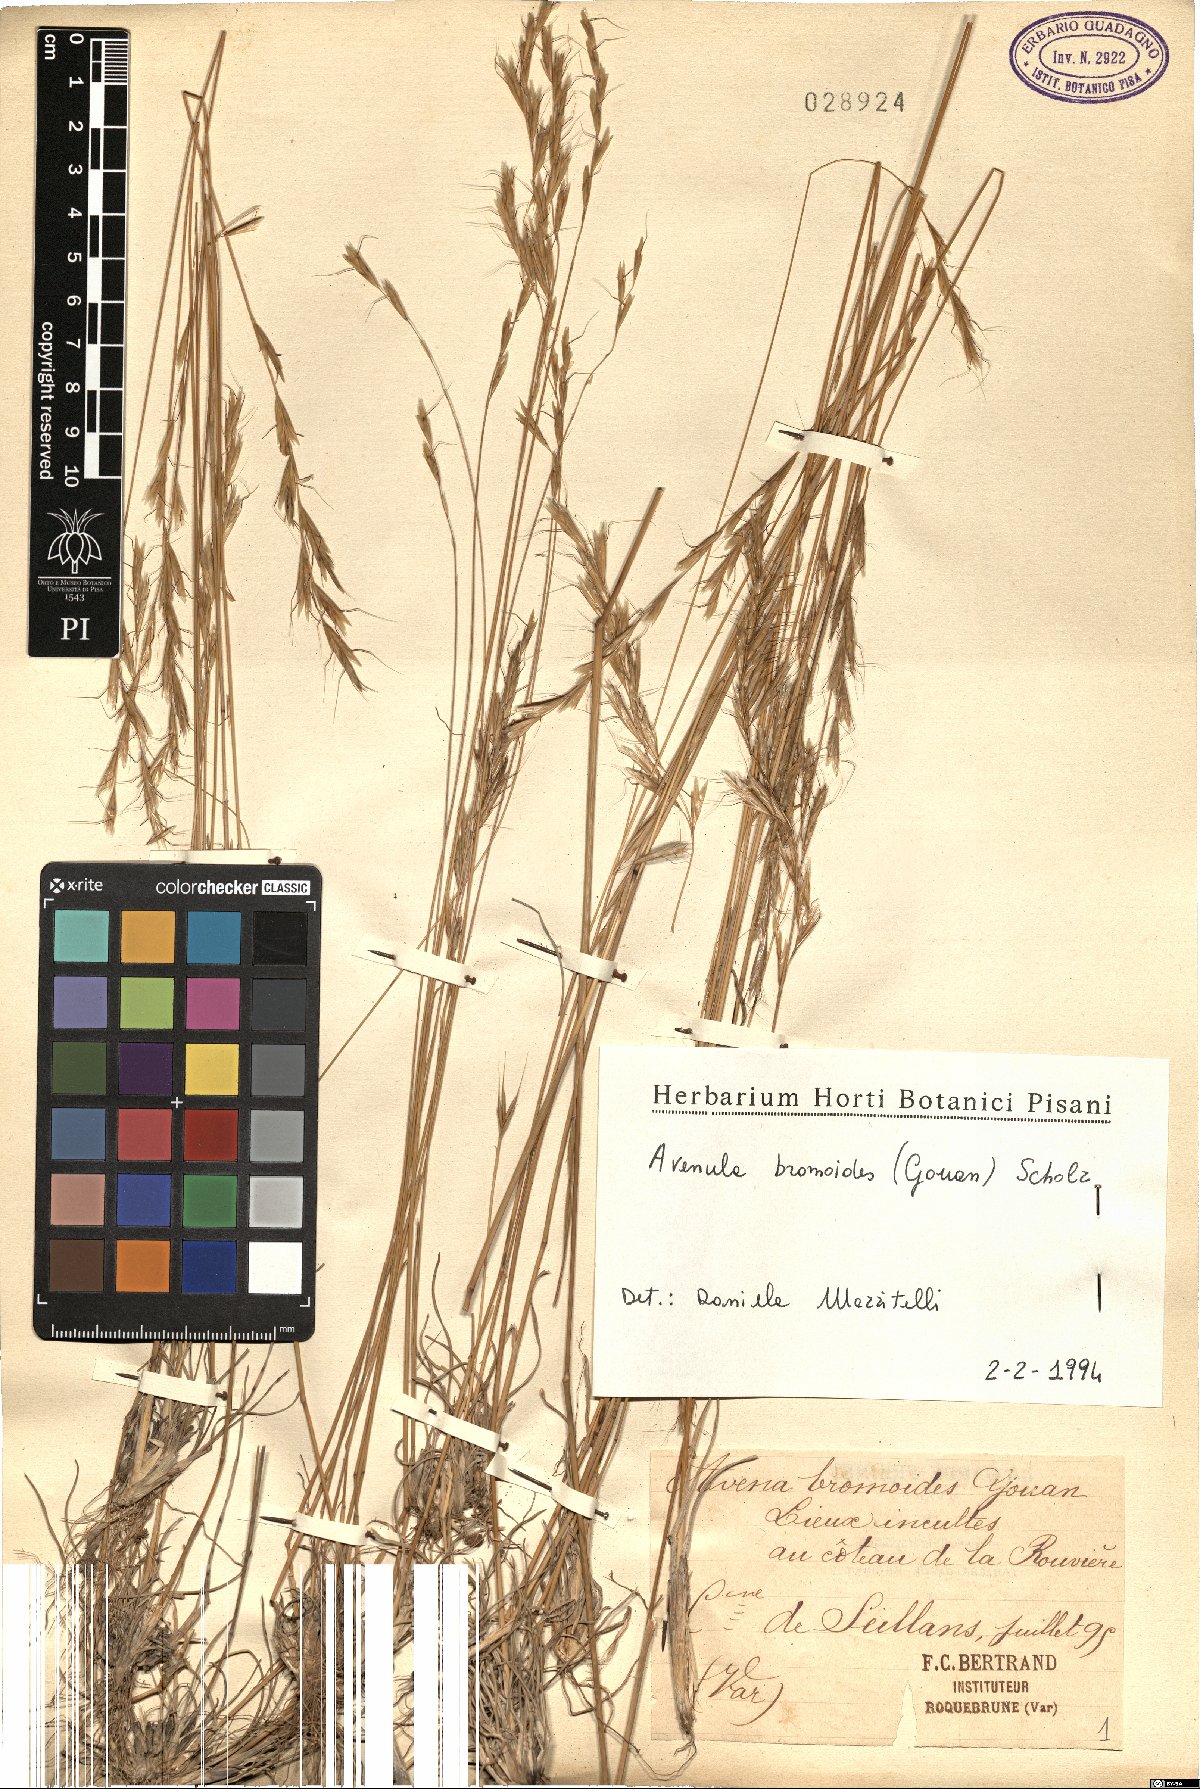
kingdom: Plantae
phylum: Tracheophyta
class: Liliopsida
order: Poales
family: Poaceae
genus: Helictochloa
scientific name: Helictochloa bromoides
